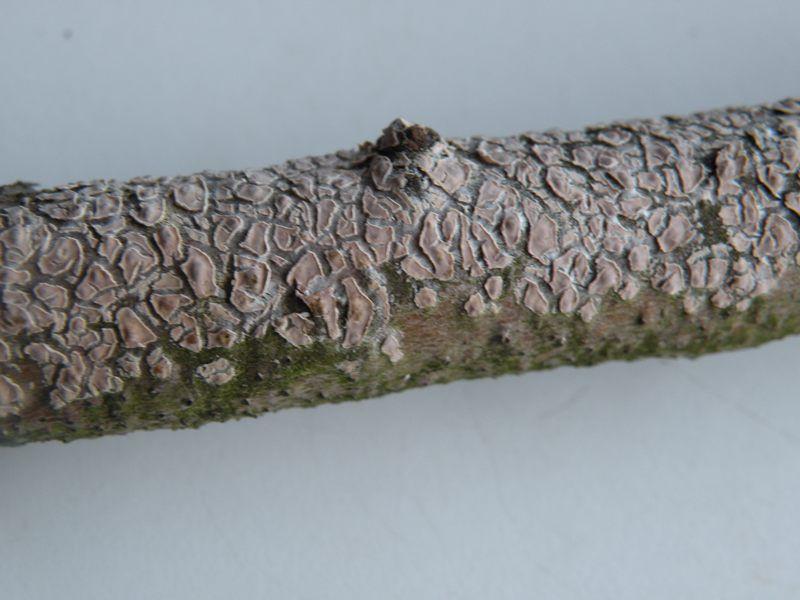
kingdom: Fungi
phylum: Basidiomycota
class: Agaricomycetes
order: Agaricales
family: Physalacriaceae
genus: Cylindrobasidium
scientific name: Cylindrobasidium evolvens
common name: sprækkehinde
